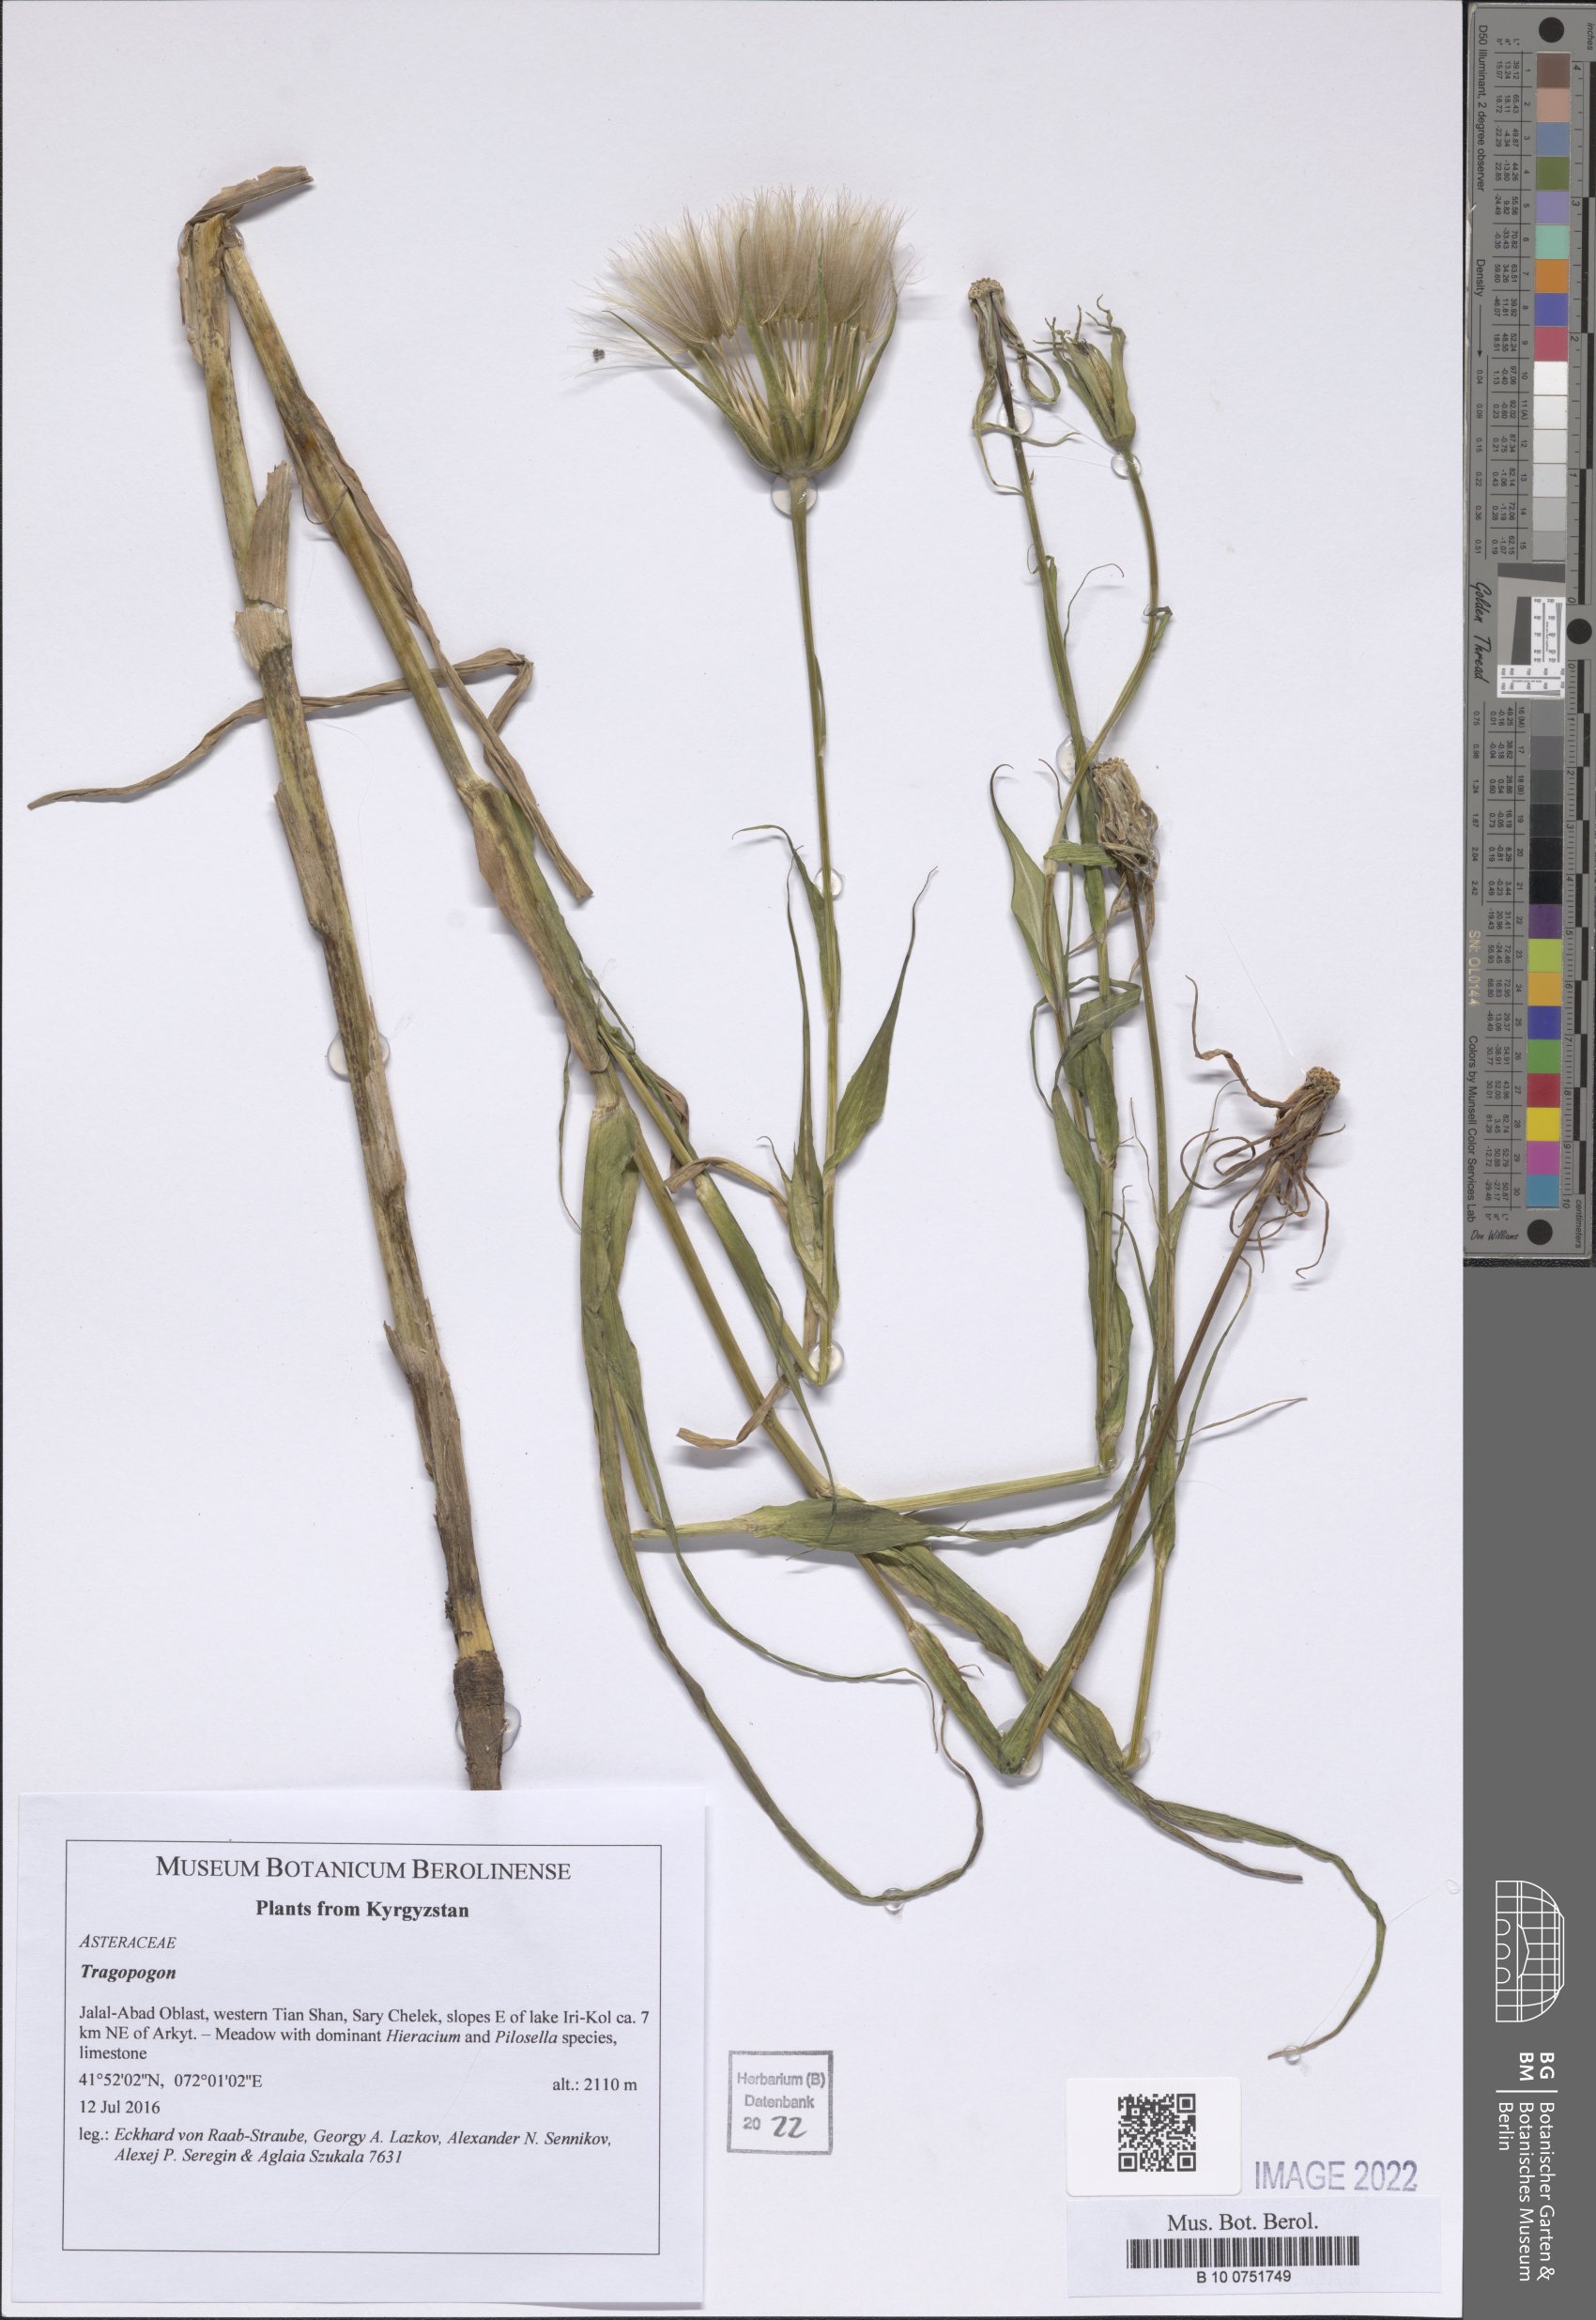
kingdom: Plantae
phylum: Tracheophyta
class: Magnoliopsida
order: Asterales
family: Asteraceae
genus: Tragopogon
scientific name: Tragopogon
